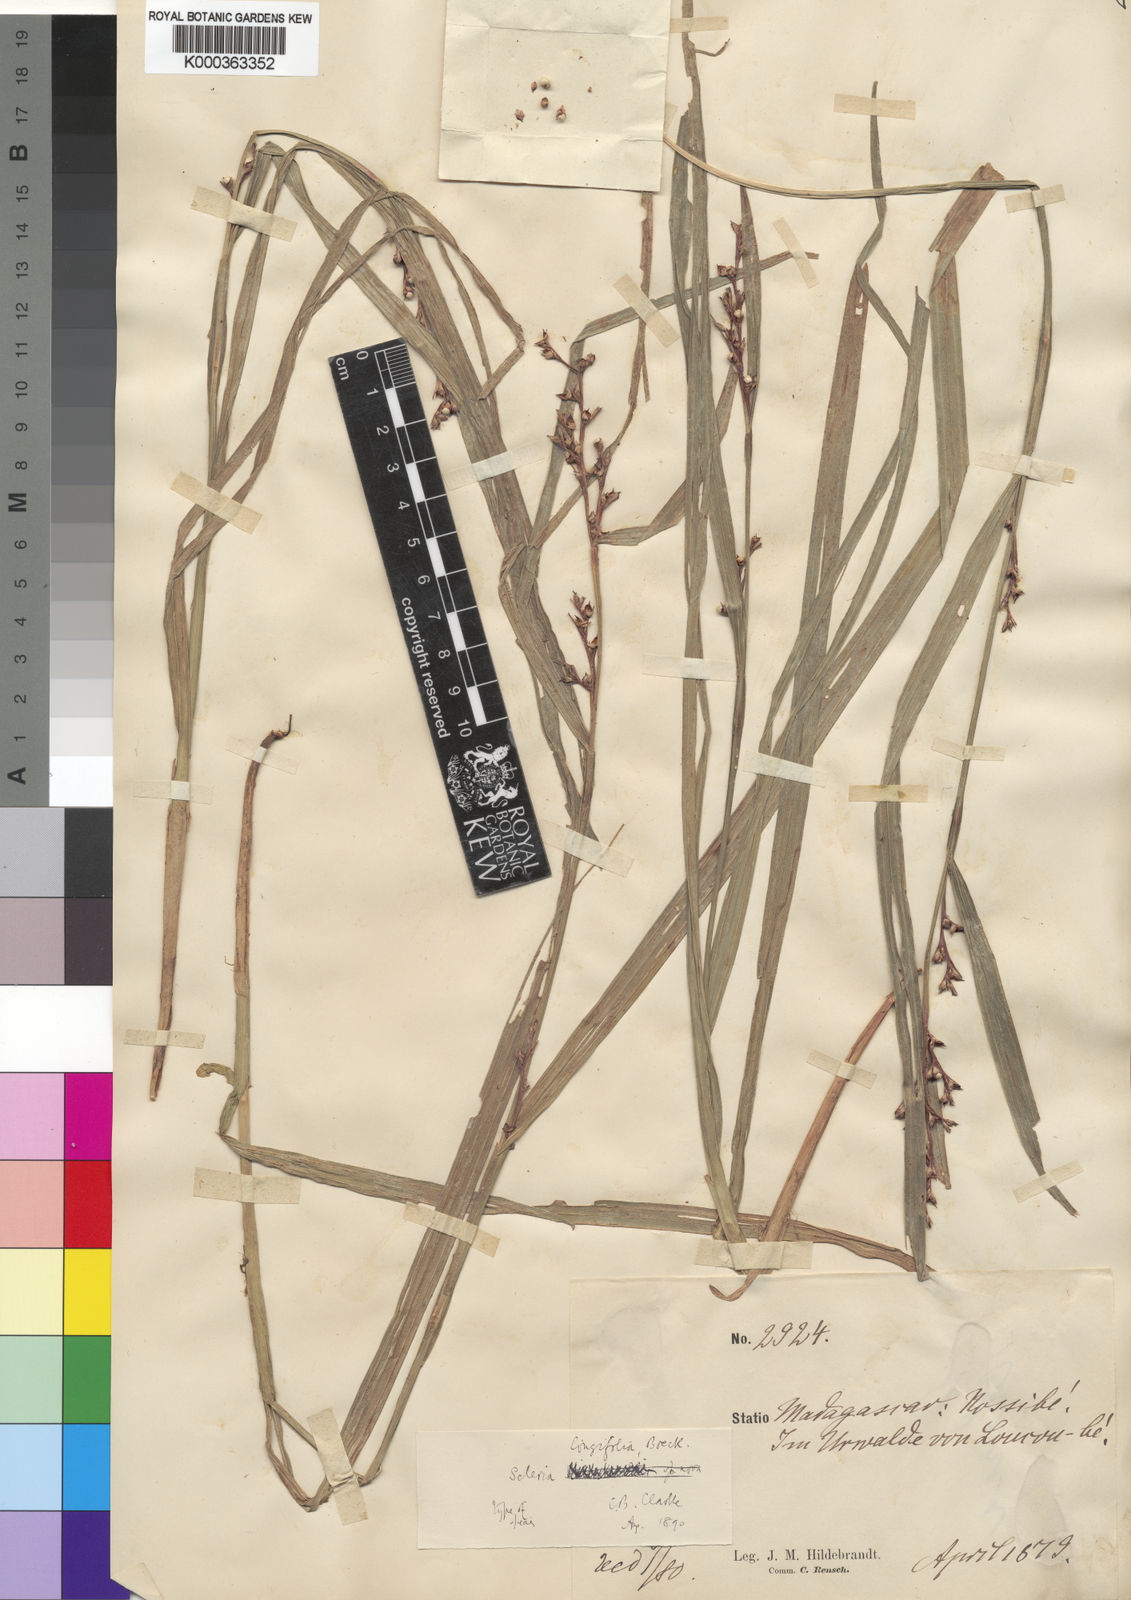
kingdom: Plantae
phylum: Tracheophyta
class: Liliopsida
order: Poales
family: Cyperaceae
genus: Scleria
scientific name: Scleria
